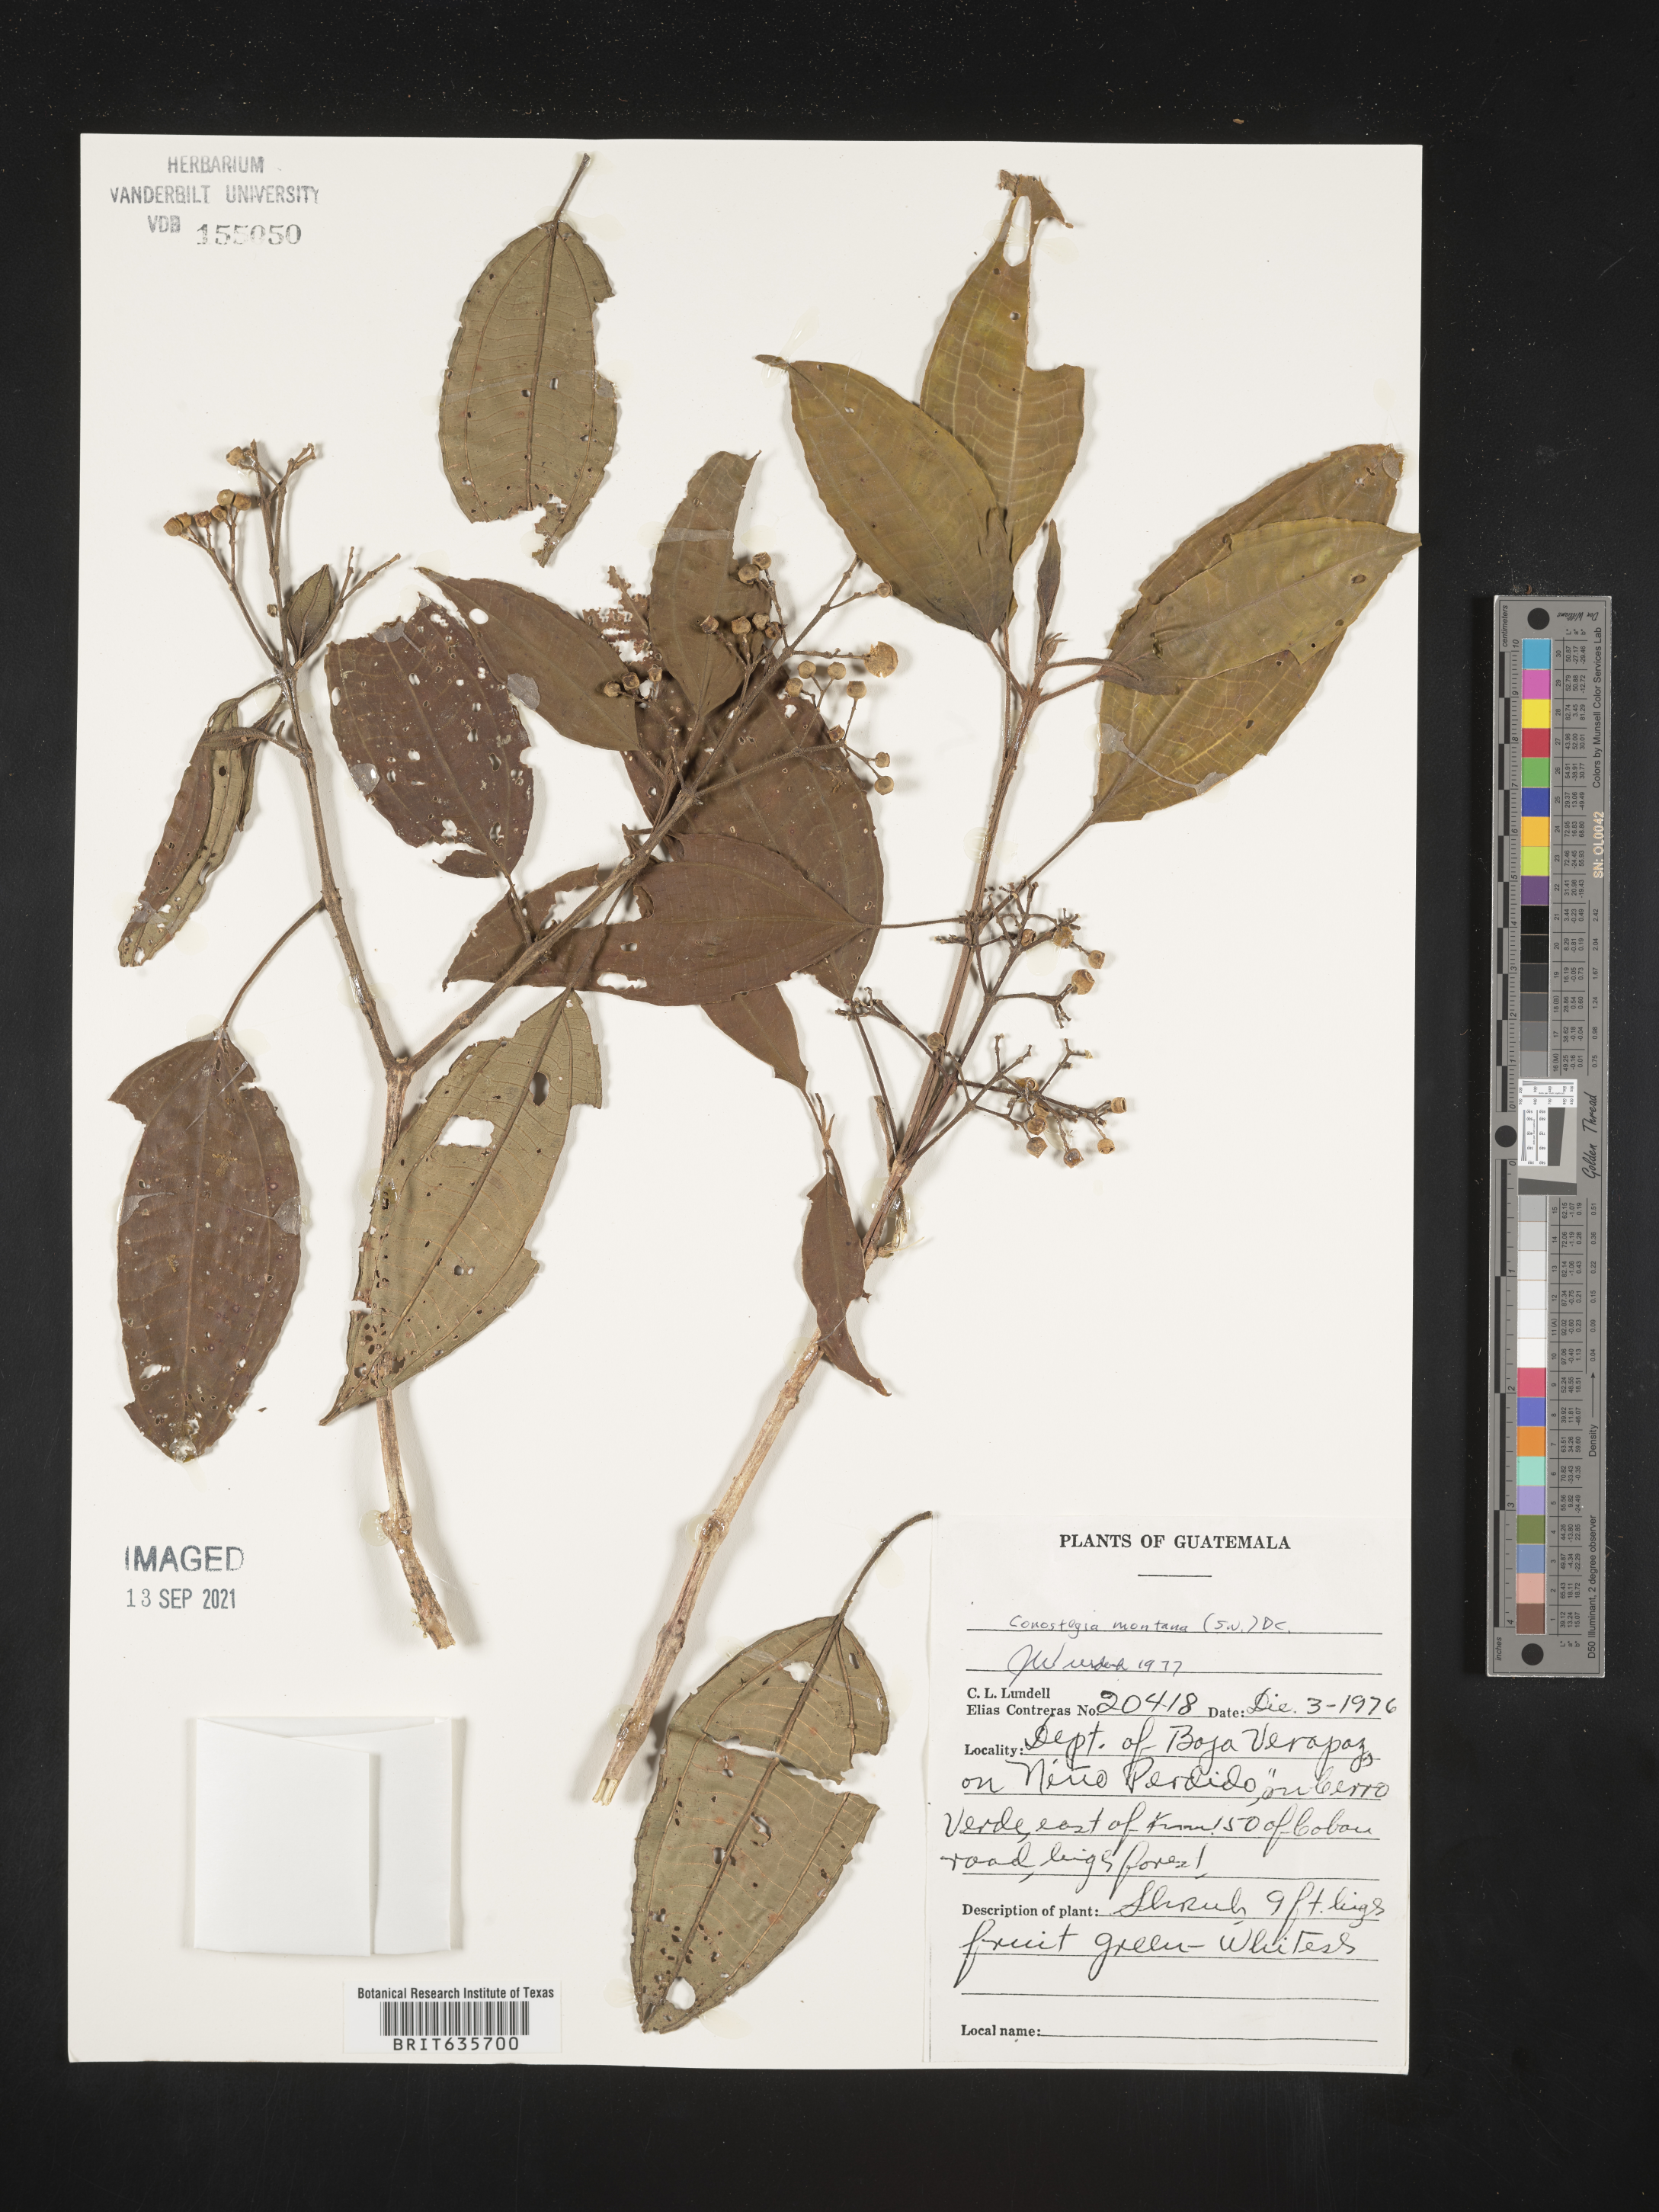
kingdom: Plantae
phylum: Tracheophyta
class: Magnoliopsida
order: Myrtales
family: Melastomataceae
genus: Miconia
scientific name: Miconia
